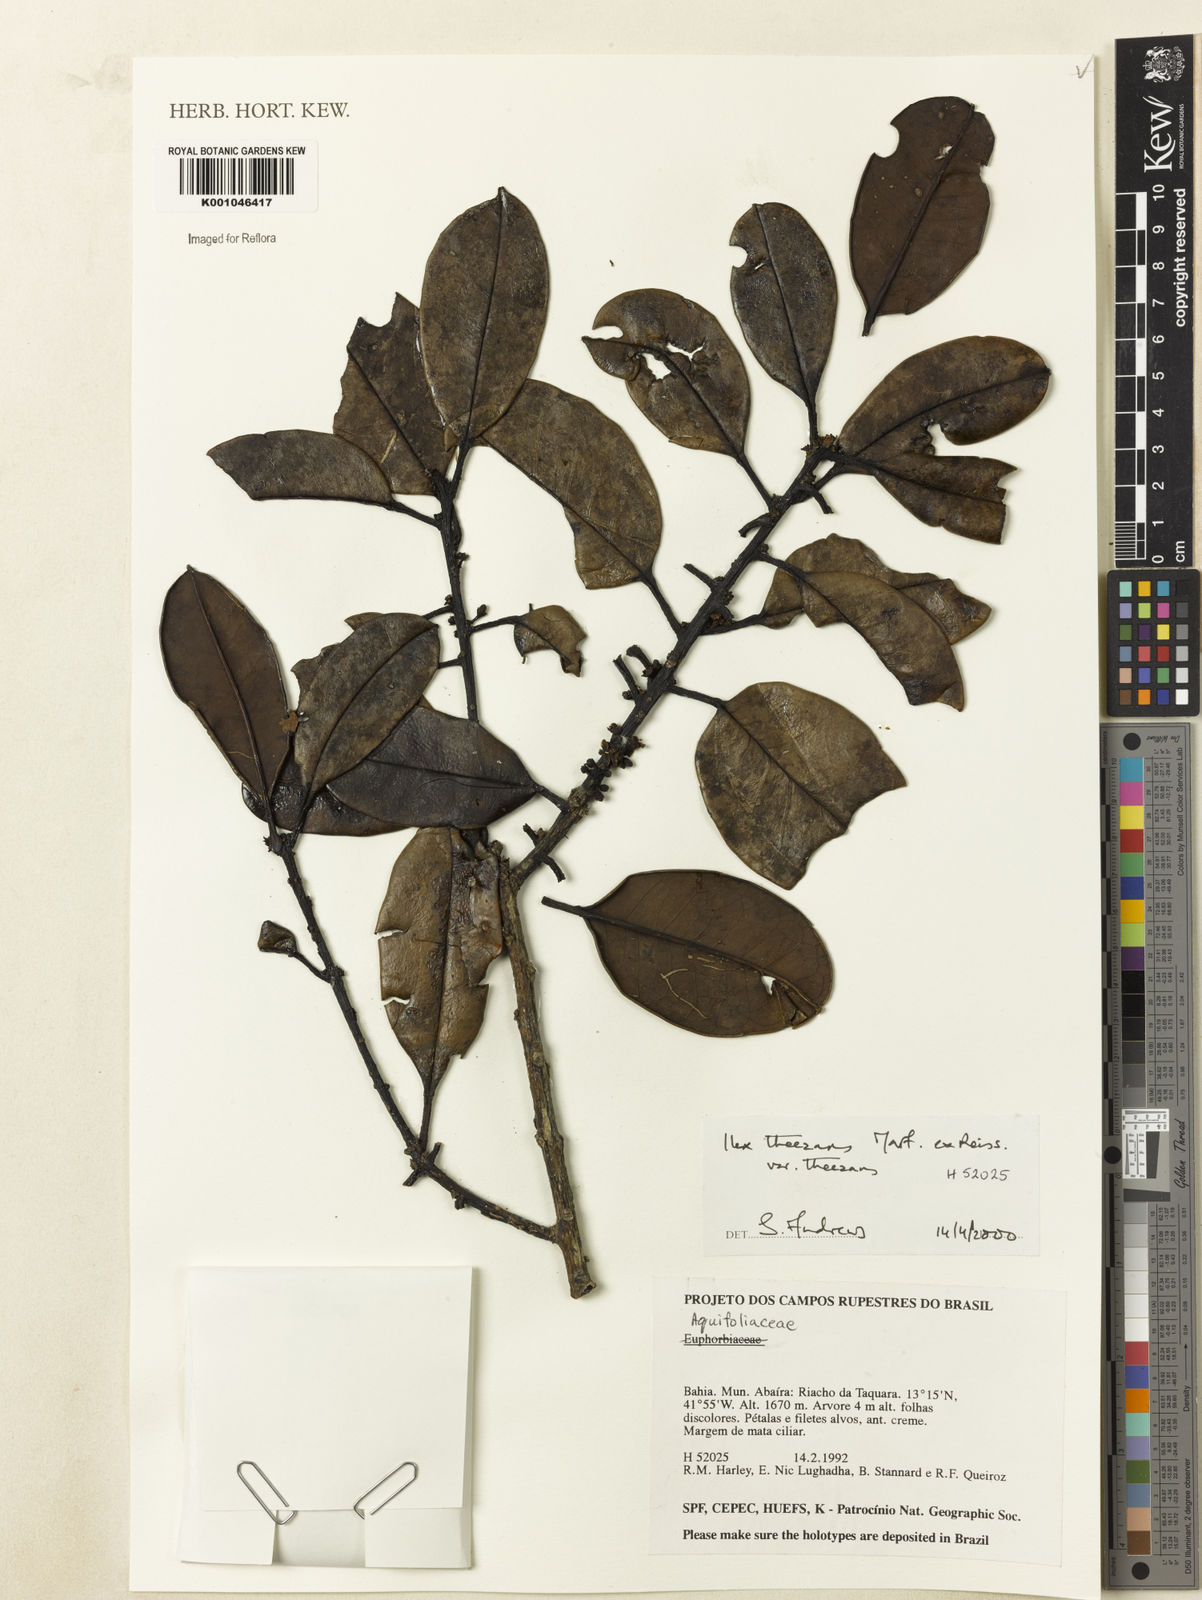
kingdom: Plantae
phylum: Tracheophyta
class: Magnoliopsida
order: Aquifoliales
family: Aquifoliaceae
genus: Ilex
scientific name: Ilex paraguariensis
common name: Paraguay tea
